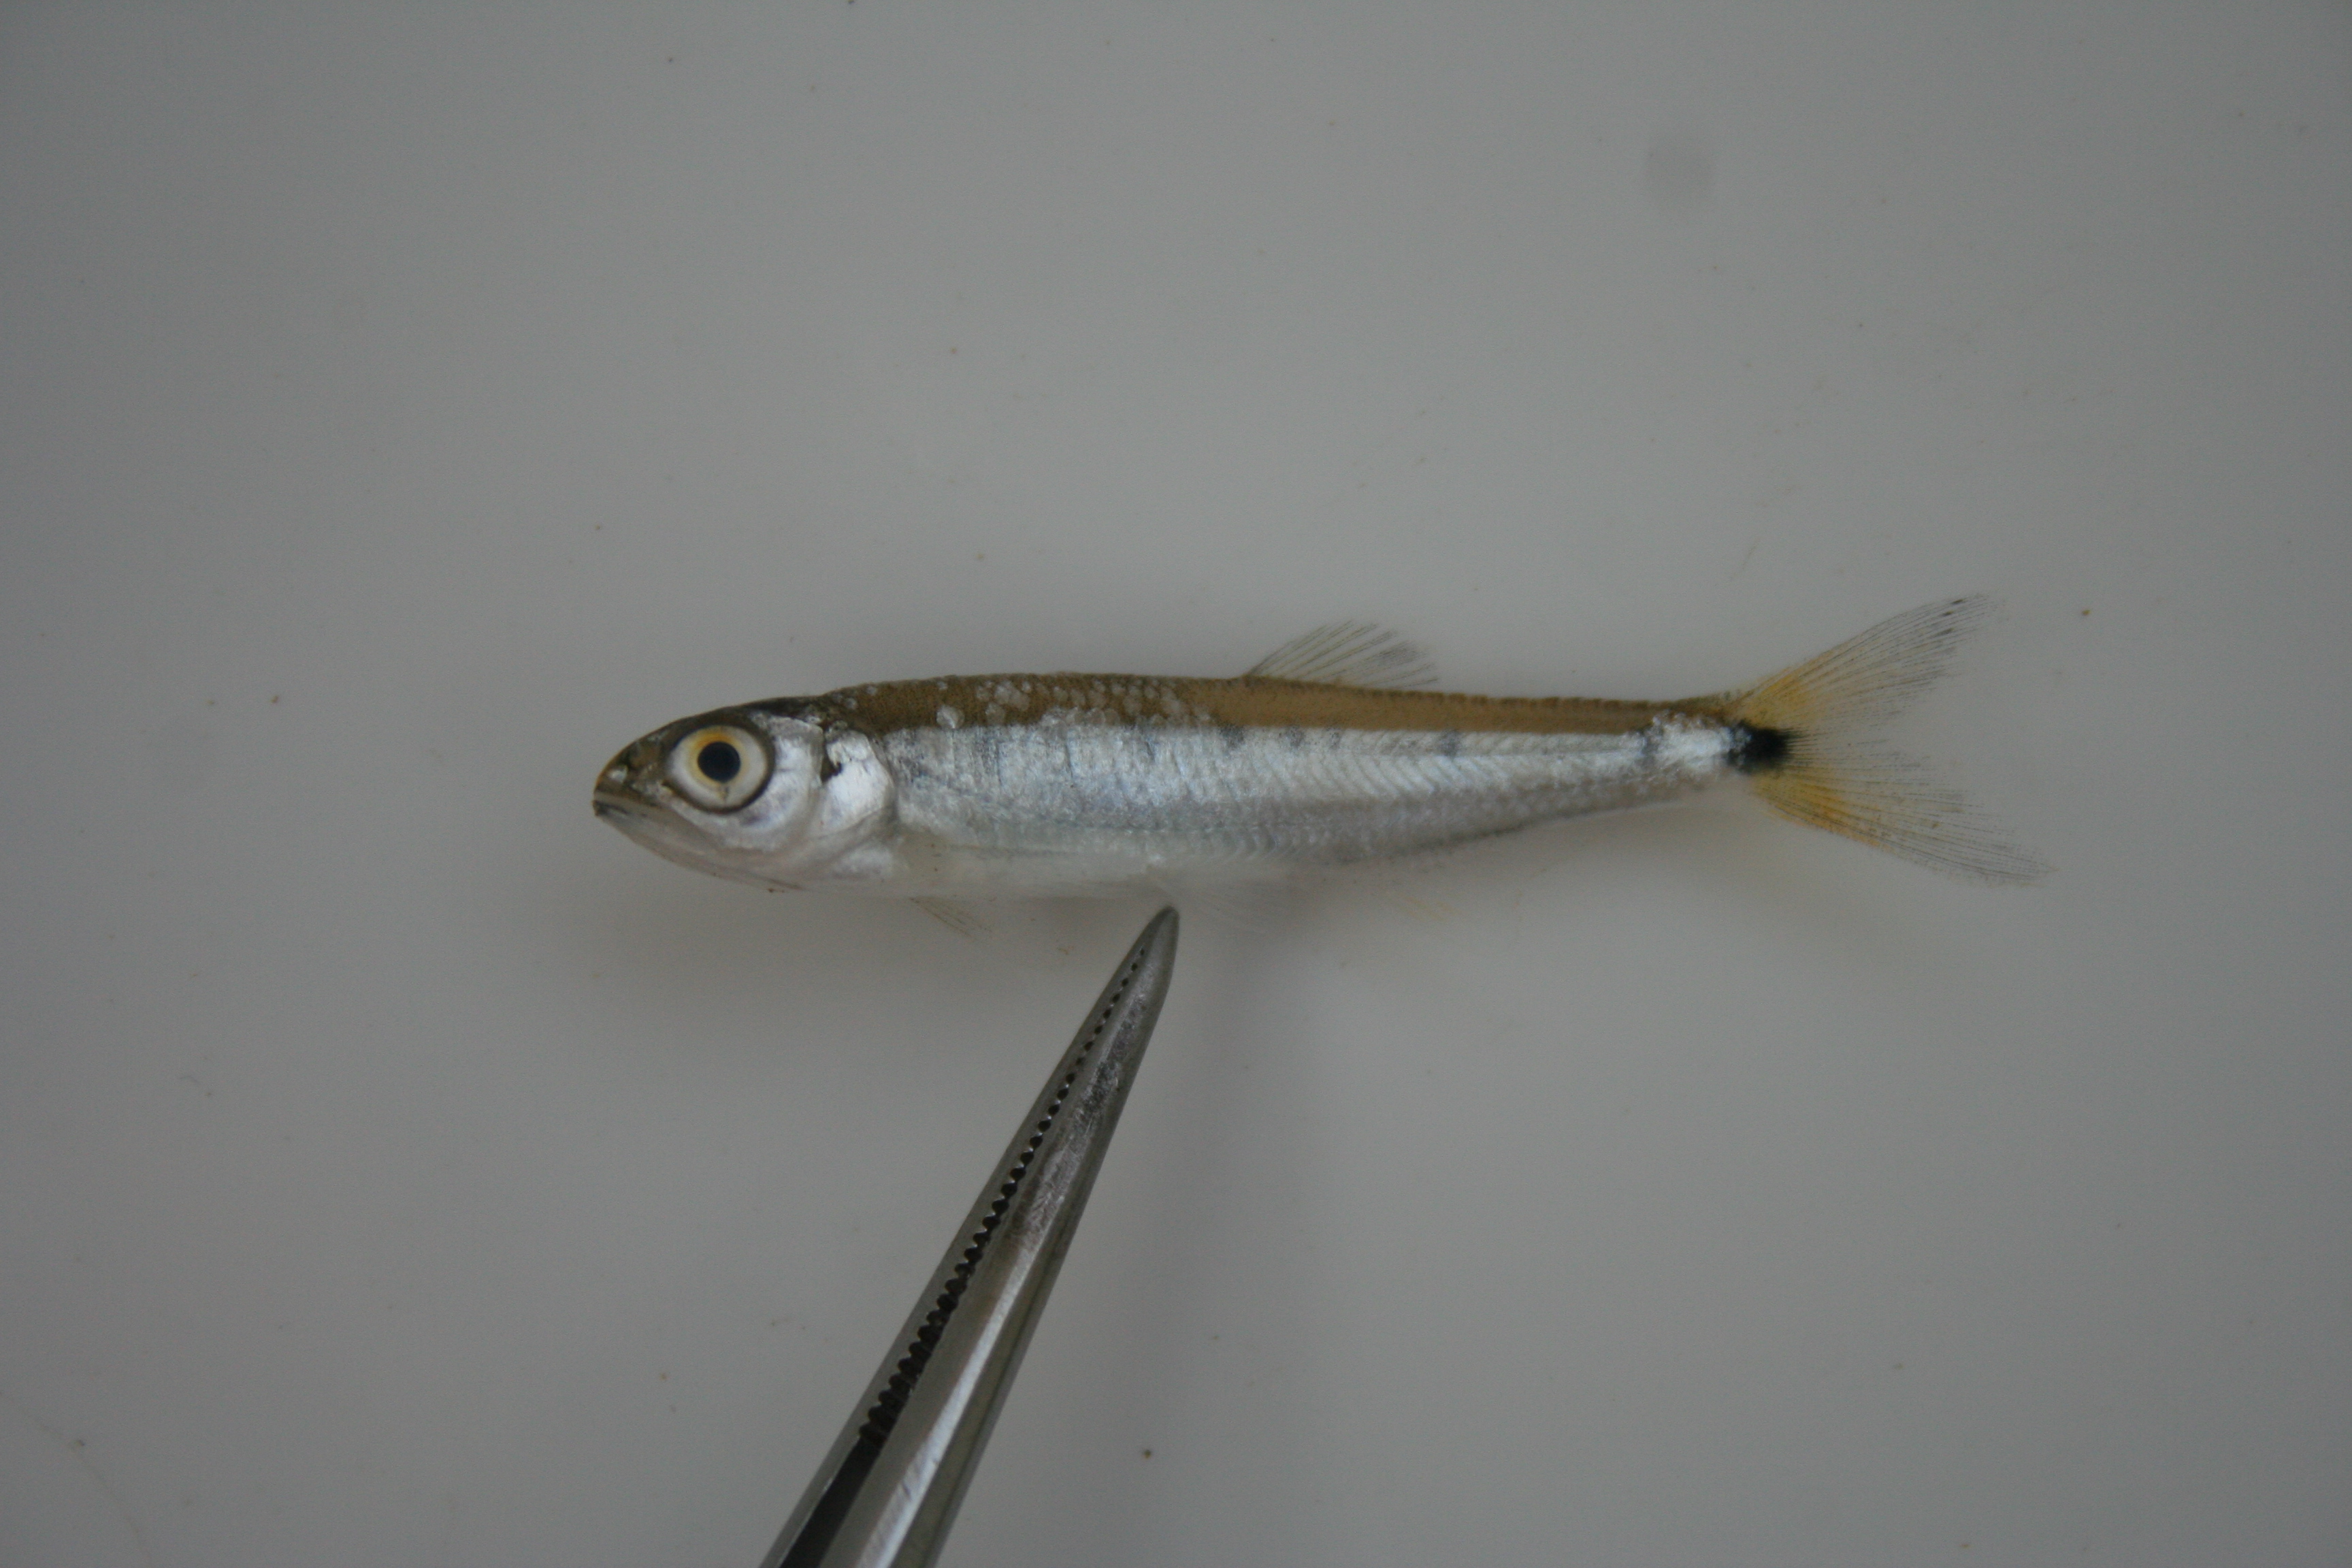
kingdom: Animalia
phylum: Chordata
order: Cypriniformes
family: Cyprinidae
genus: Opsaridium
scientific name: Opsaridium
